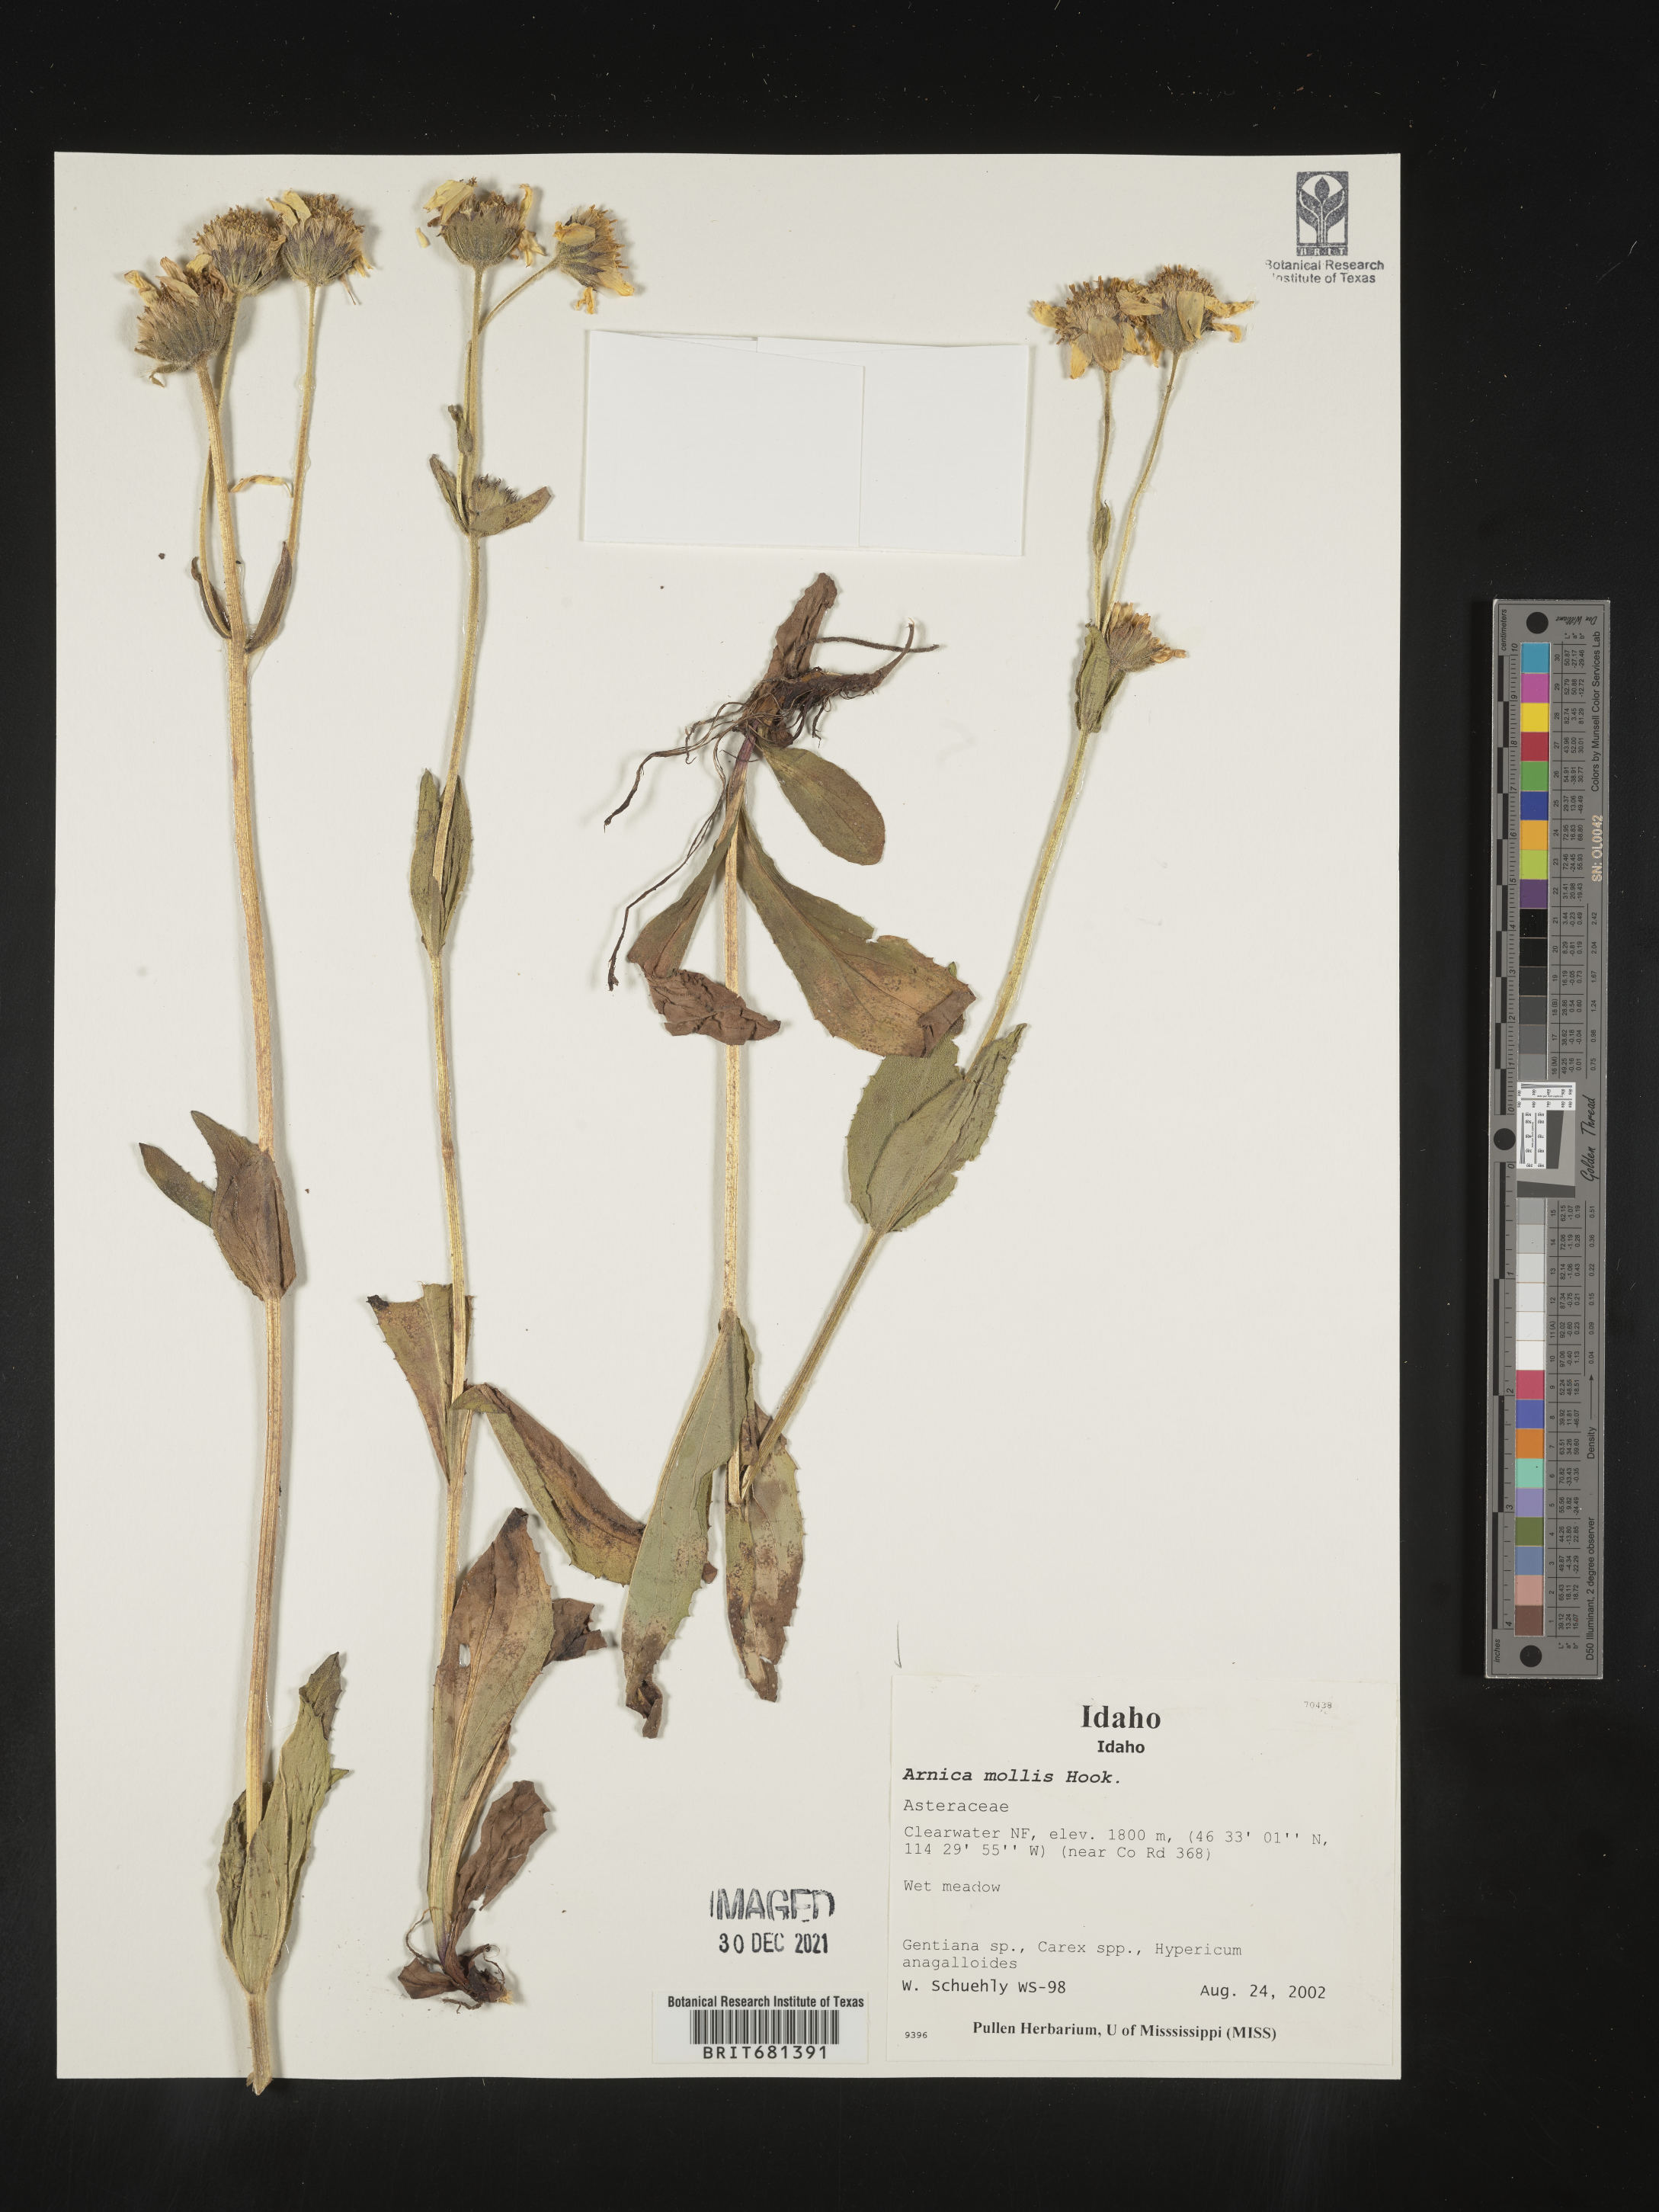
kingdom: Plantae
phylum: Tracheophyta
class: Magnoliopsida
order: Asterales
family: Asteraceae
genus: Arnica
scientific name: Arnica mollis
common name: Hairy arnica
